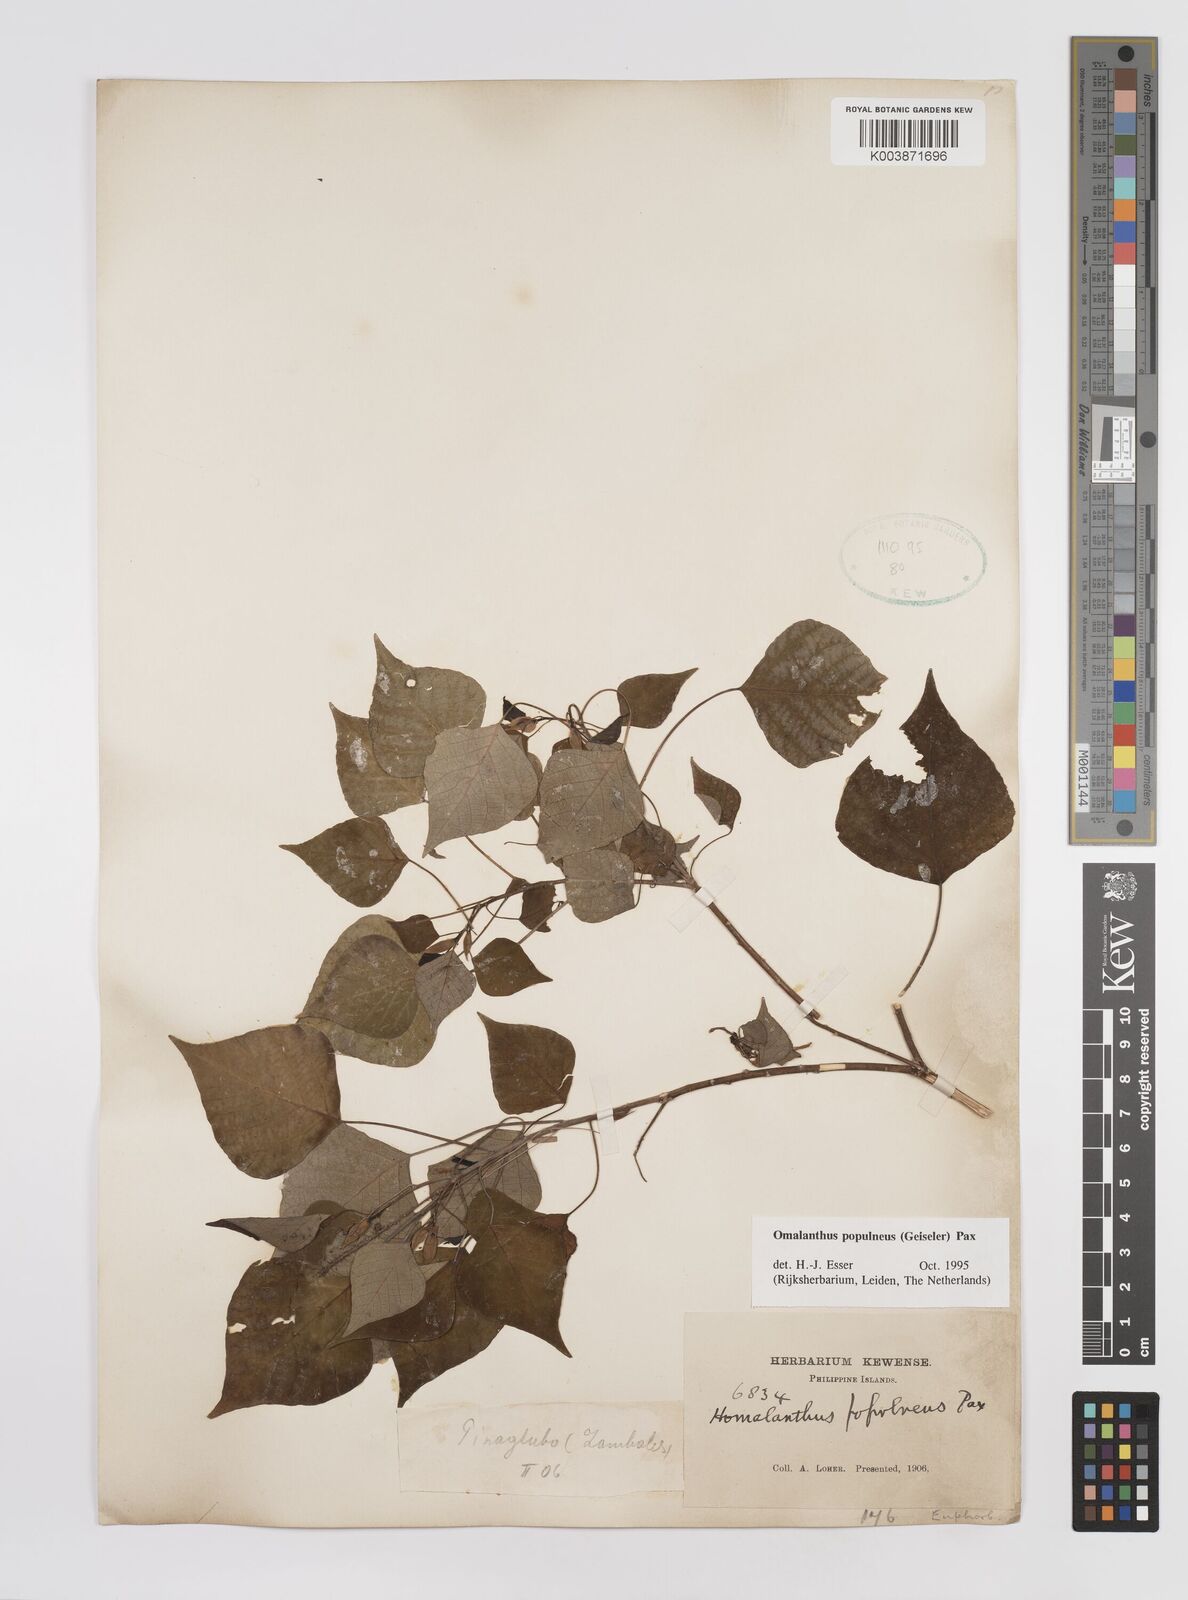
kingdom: Plantae
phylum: Tracheophyta
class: Magnoliopsida
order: Malpighiales
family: Euphorbiaceae
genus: Homalanthus
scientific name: Homalanthus populneus
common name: Spurge
